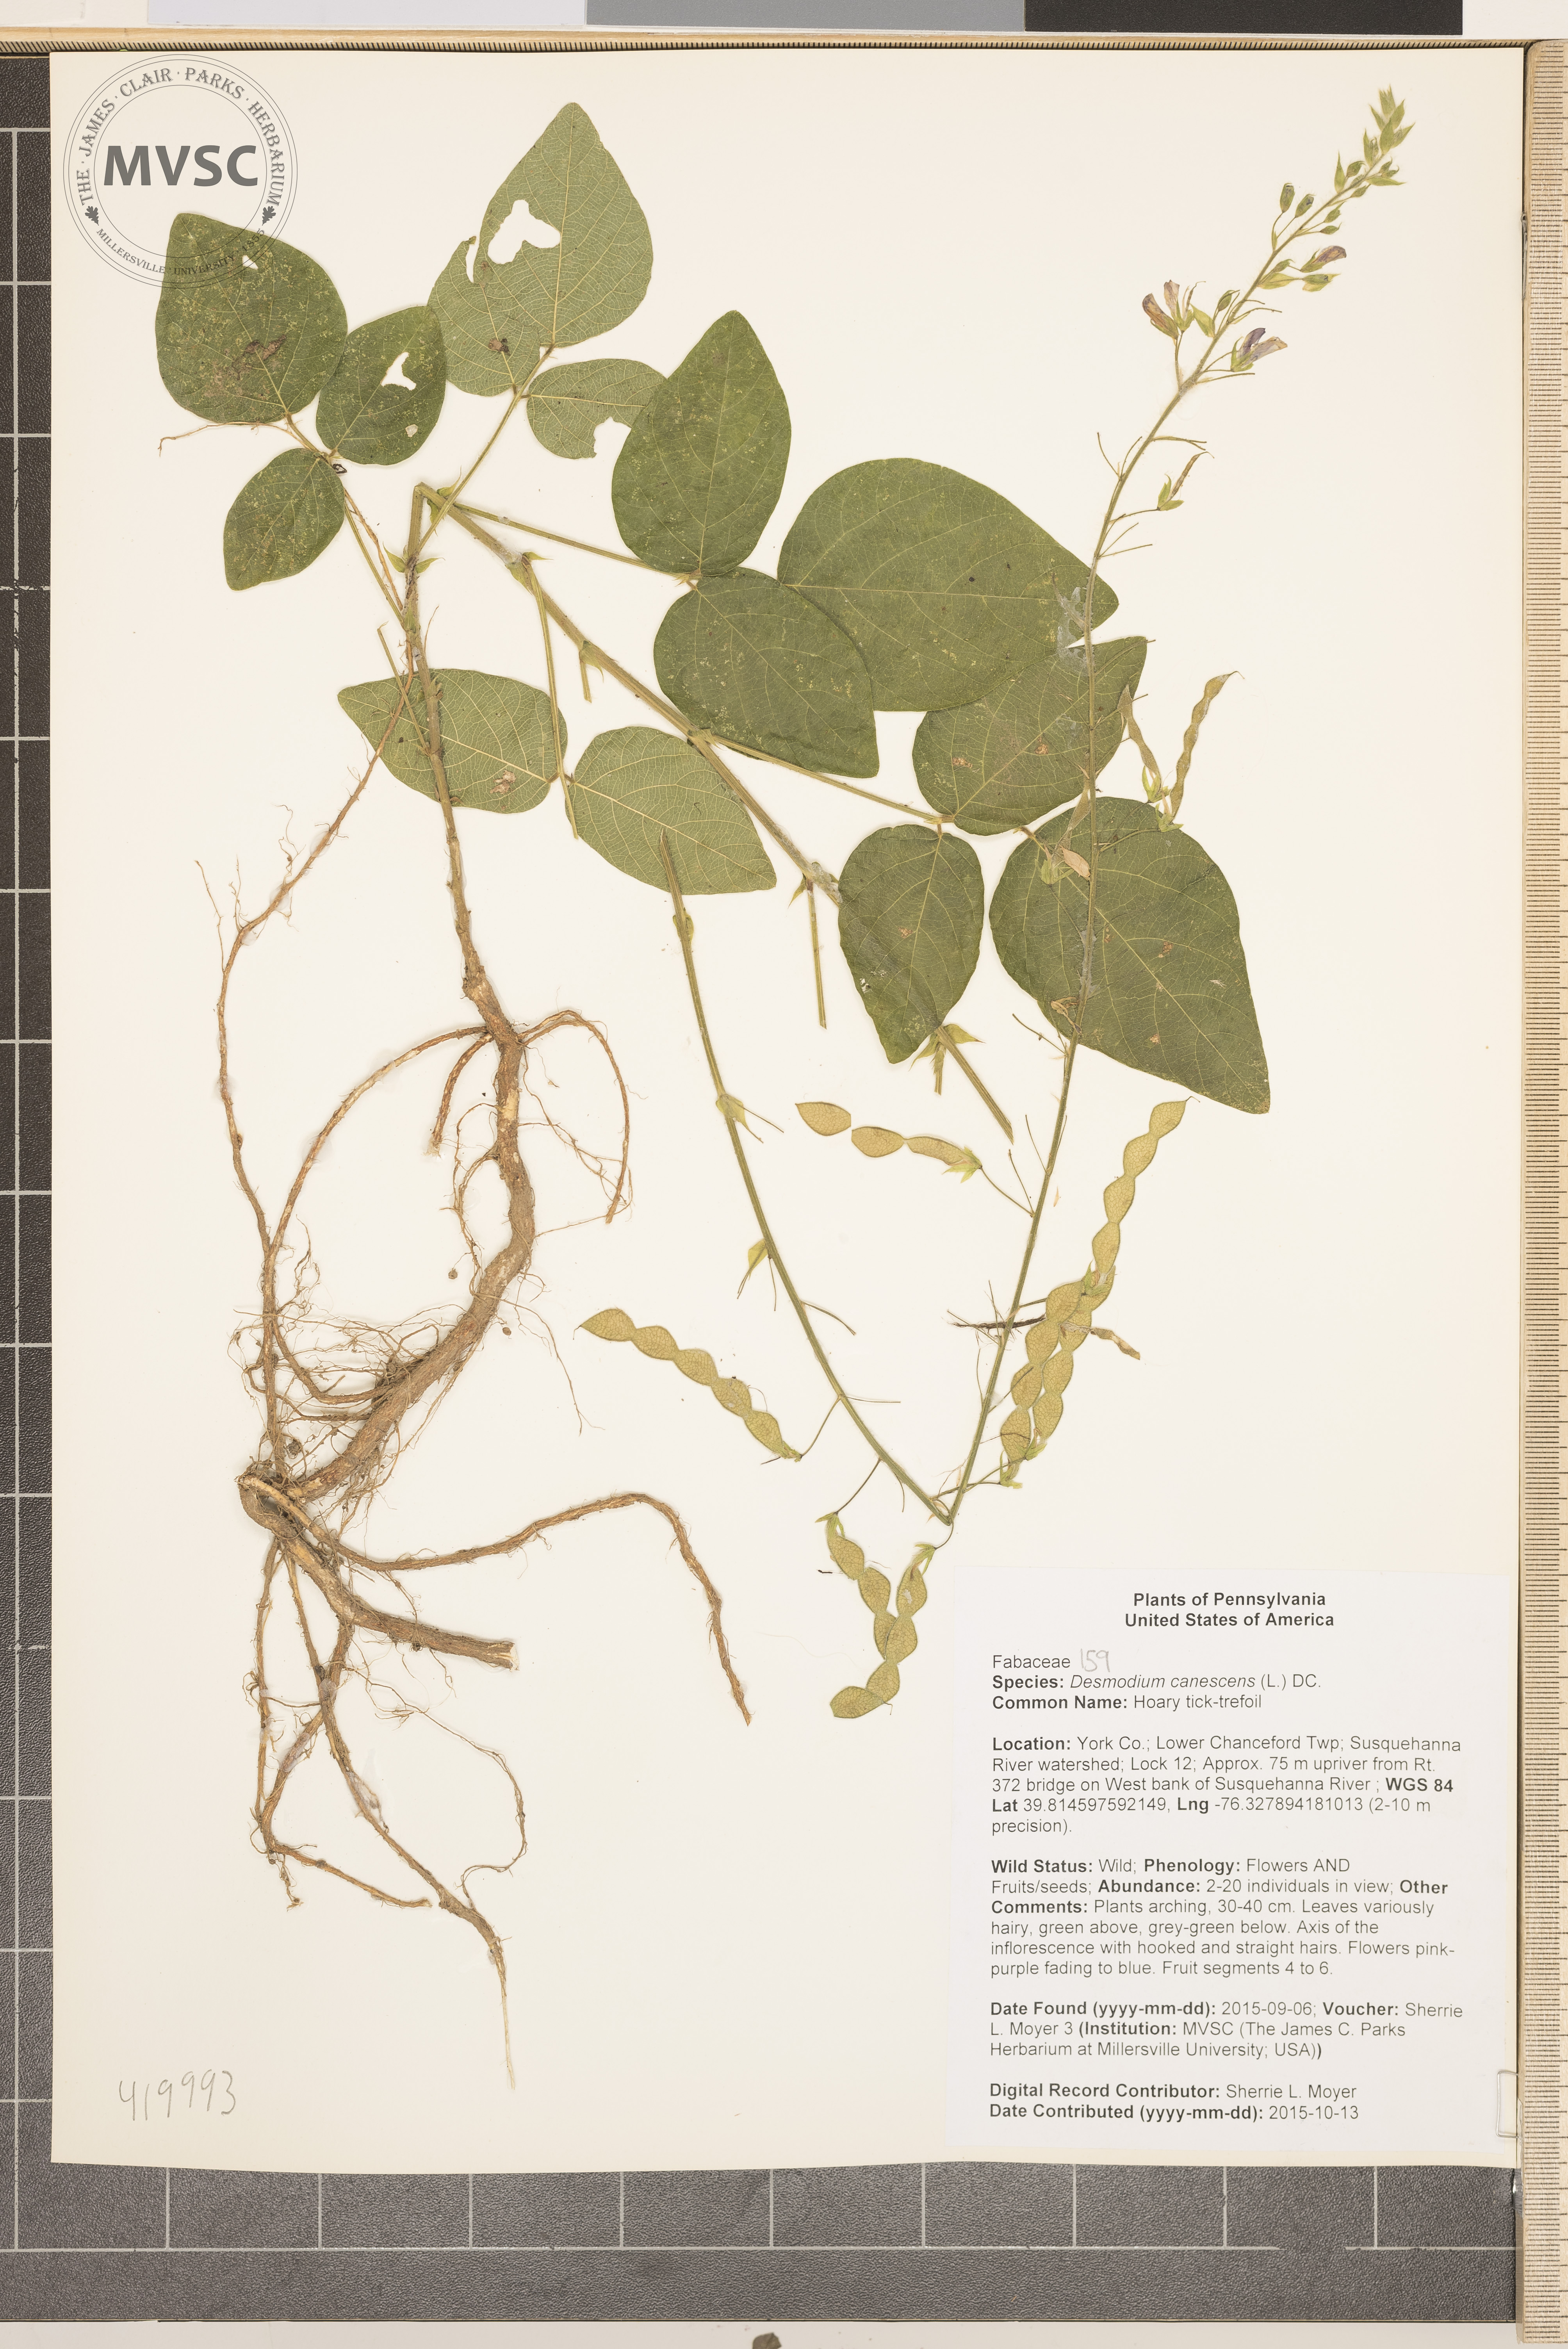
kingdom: Plantae
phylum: Tracheophyta
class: Magnoliopsida
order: Fabales
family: Fabaceae
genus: Desmodium
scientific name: Desmodium canescens
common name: Hoary tick-trefoil
